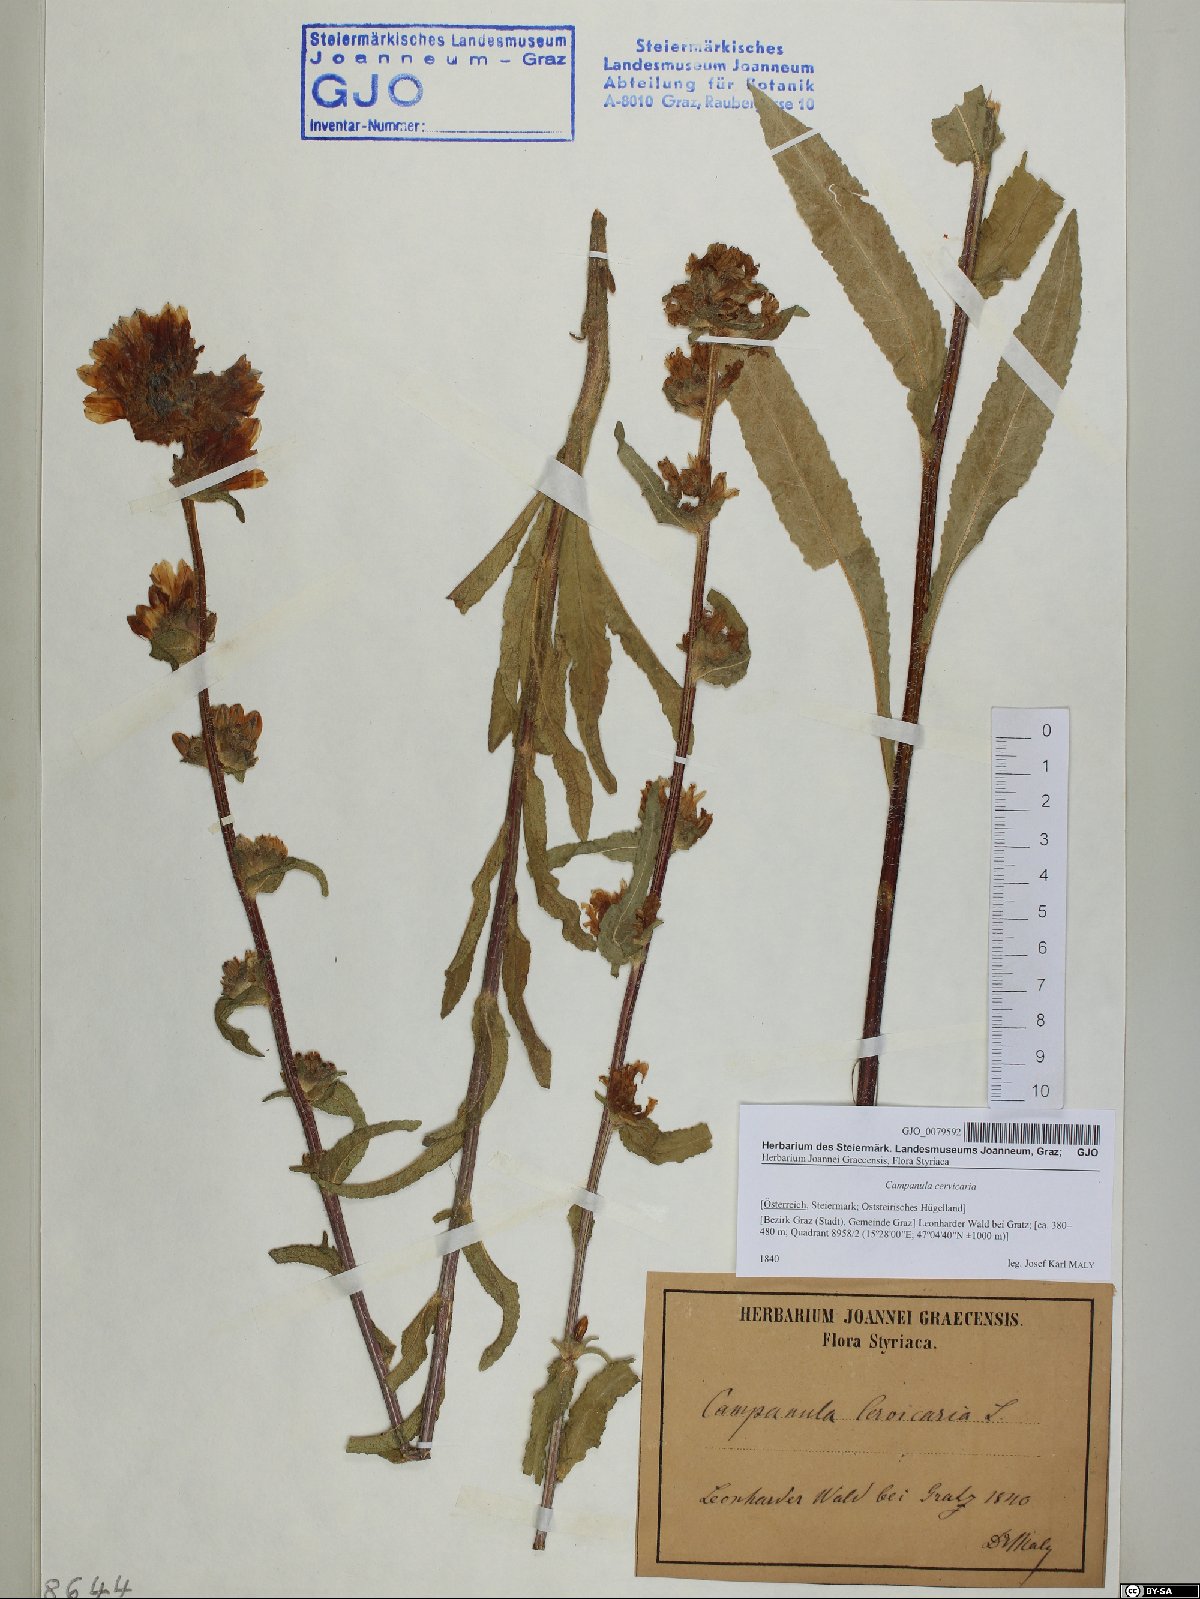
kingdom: Plantae
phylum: Tracheophyta
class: Magnoliopsida
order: Asterales
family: Campanulaceae
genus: Campanula
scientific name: Campanula cervicaria
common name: Bristly bellflower
